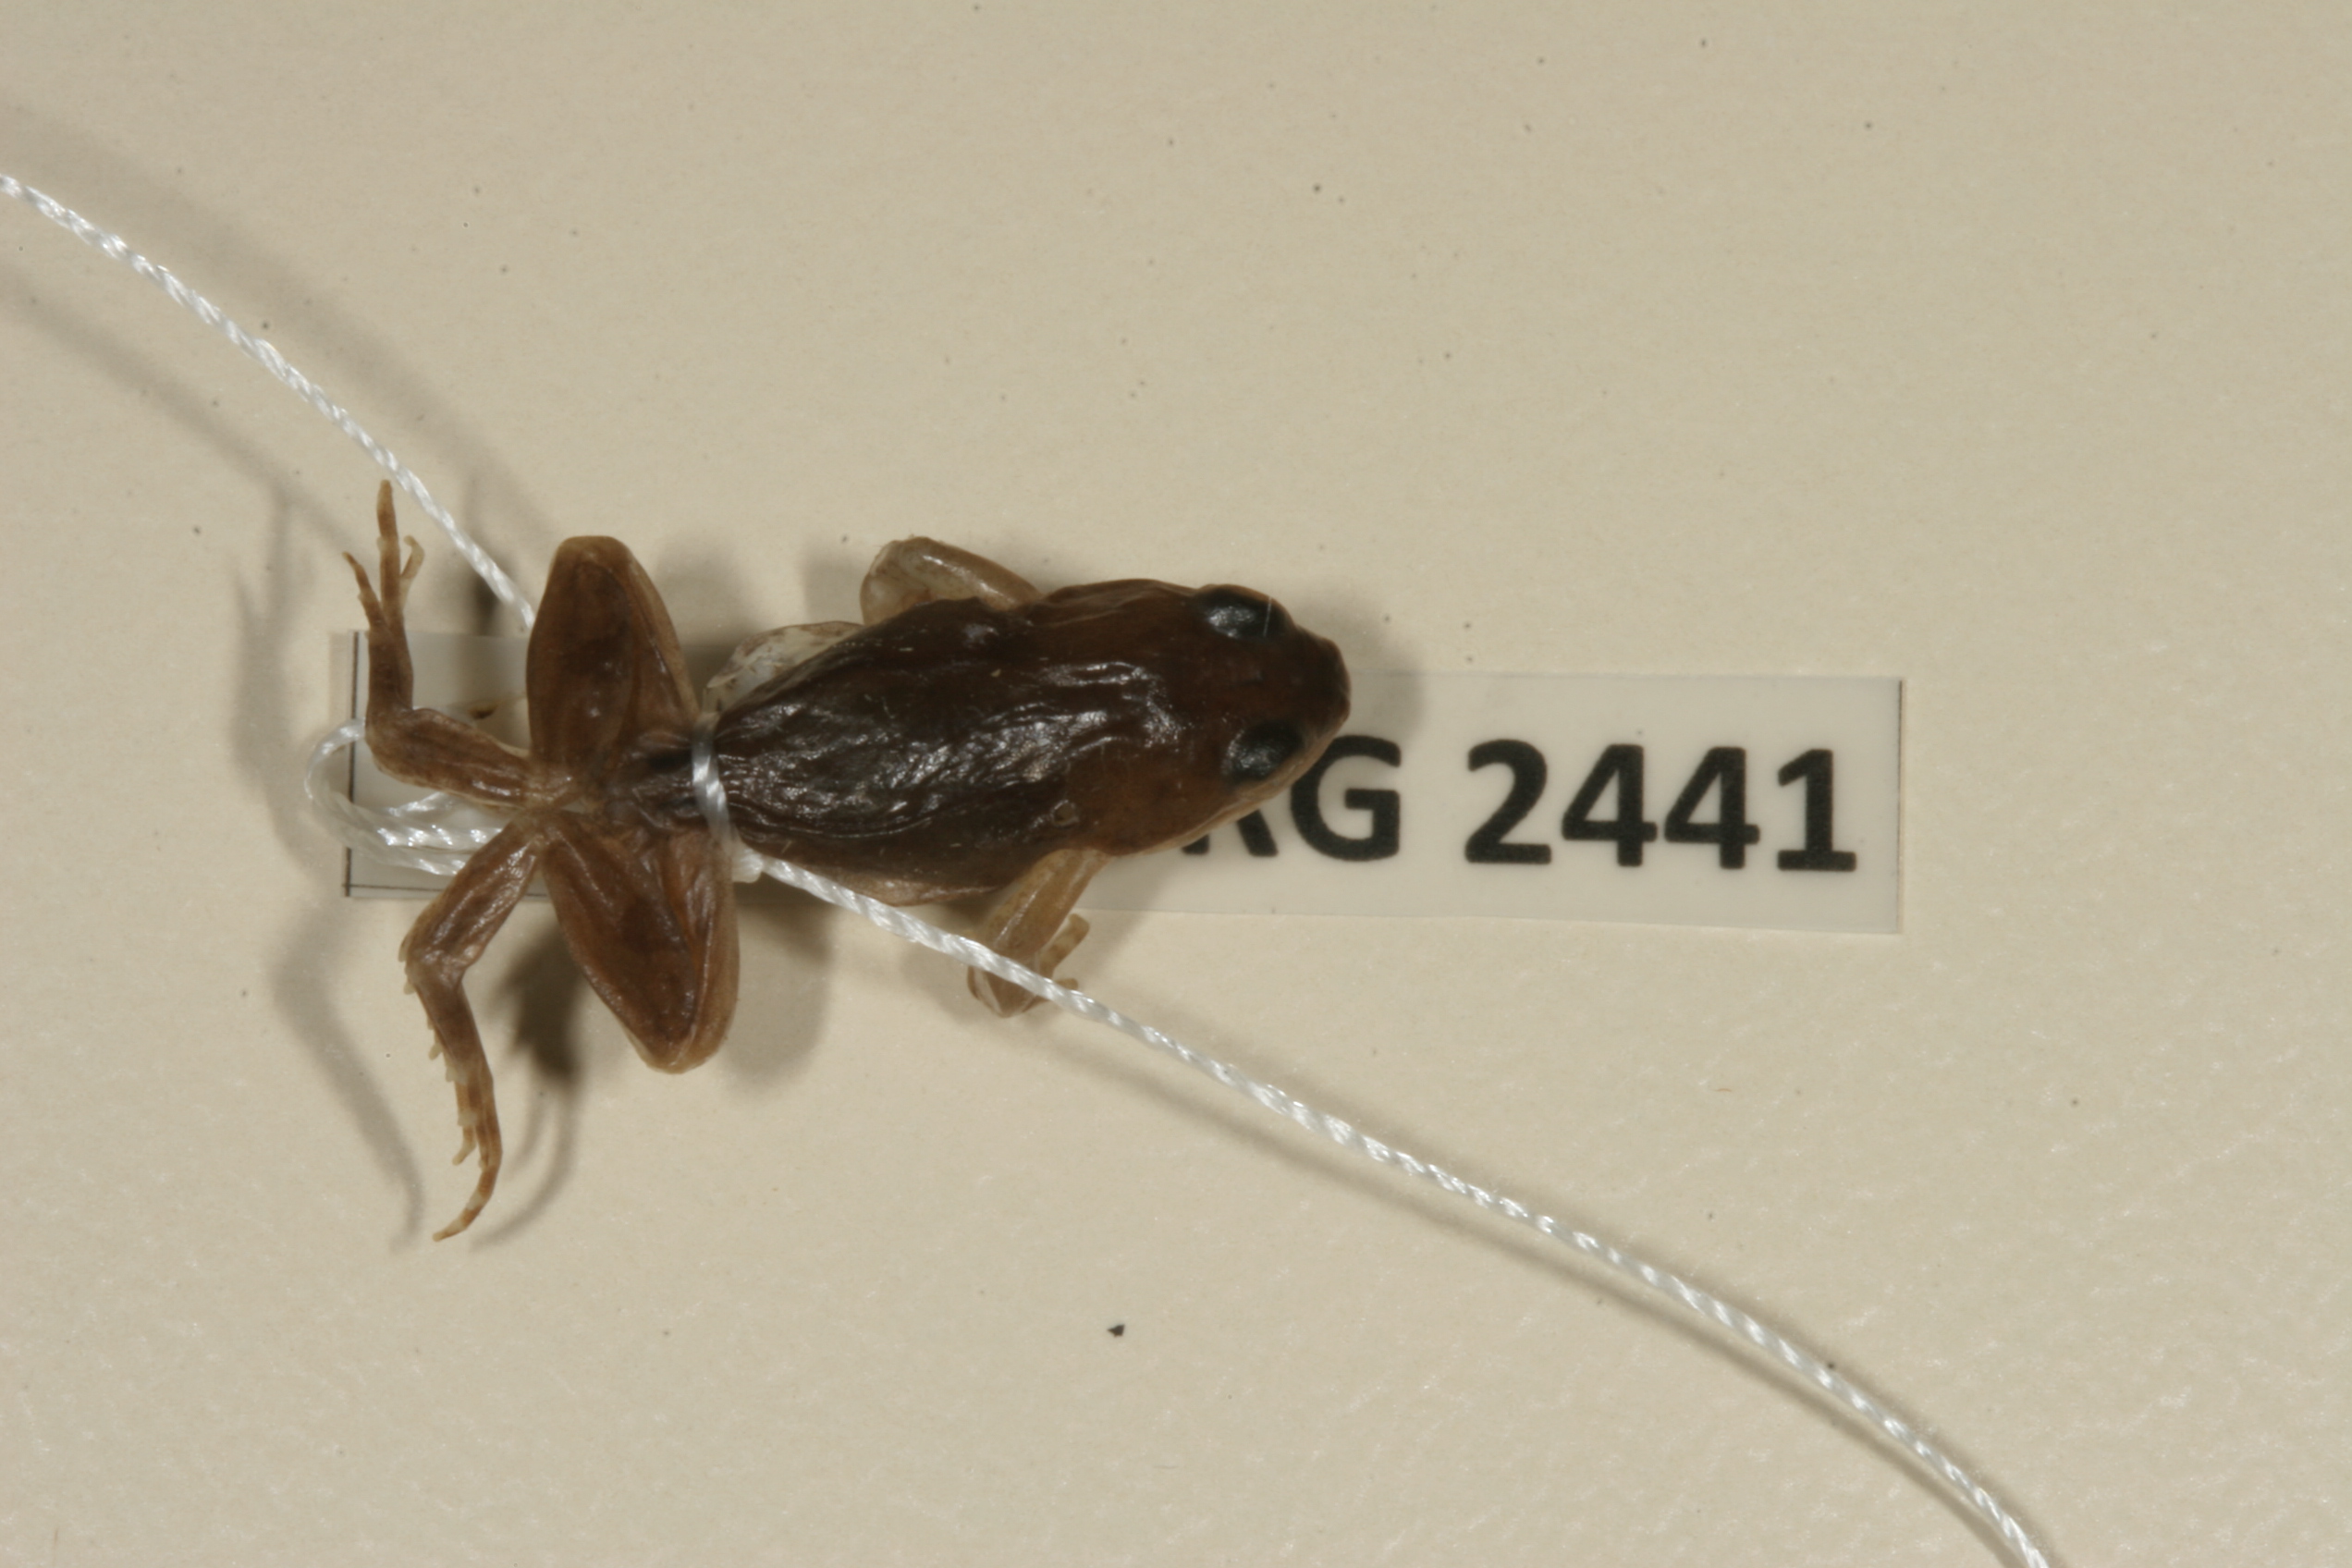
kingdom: Animalia
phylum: Chordata
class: Amphibia
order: Anura
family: Pyxicephalidae
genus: Cacosternum
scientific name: Cacosternum boettgeri
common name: Boettger's frog
